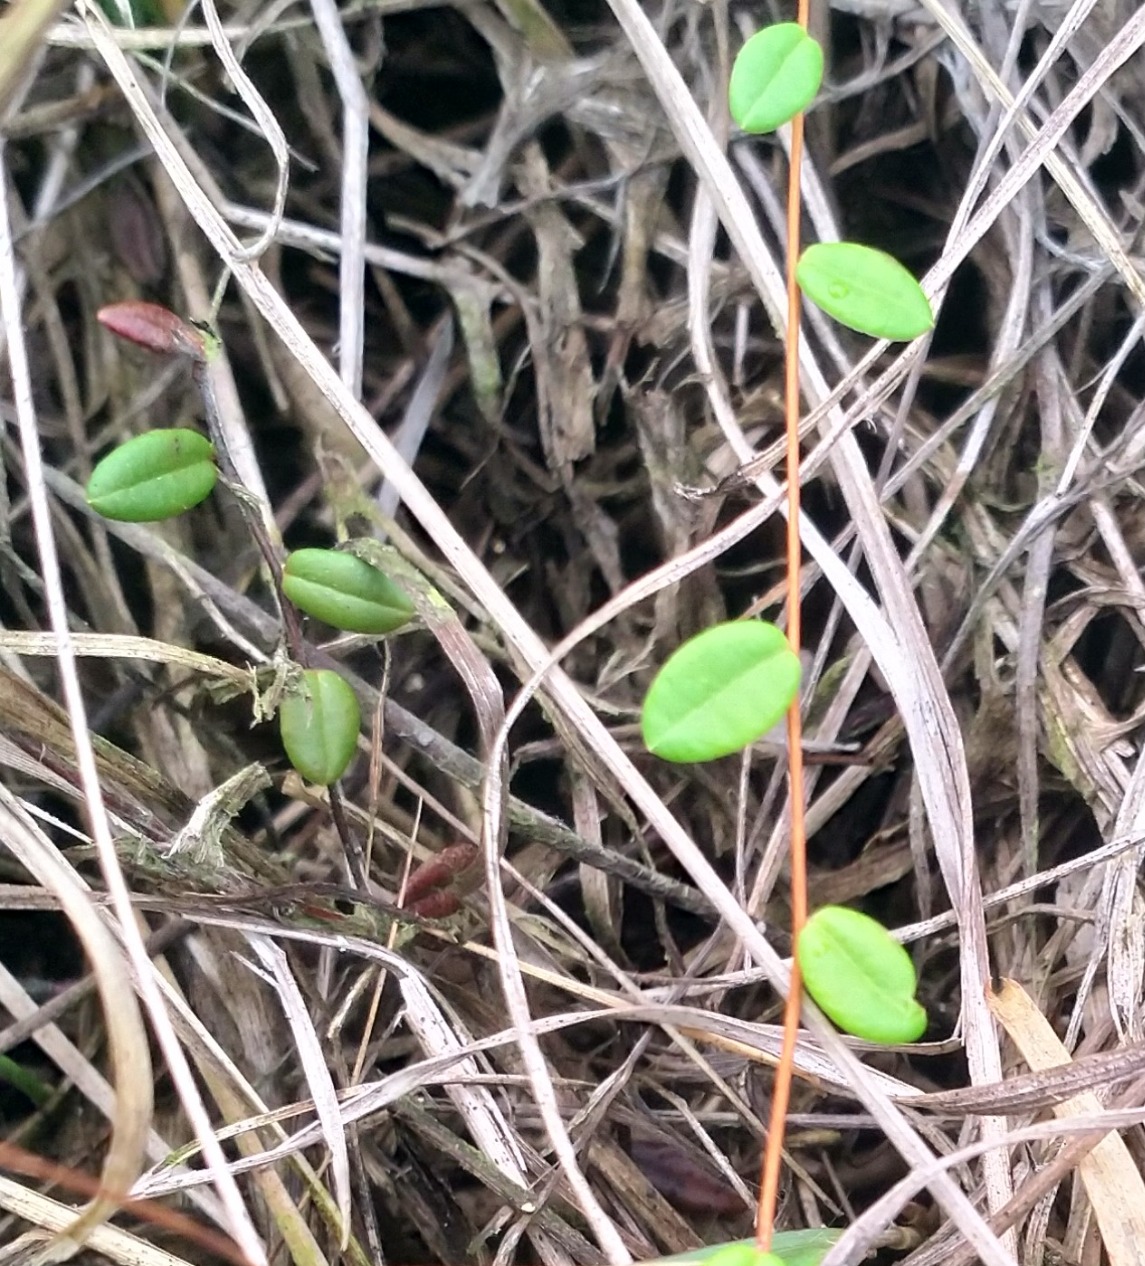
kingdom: Plantae
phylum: Tracheophyta
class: Magnoliopsida
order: Ericales
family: Ericaceae
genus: Vaccinium
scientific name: Vaccinium oxycoccos
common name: Tranebær
